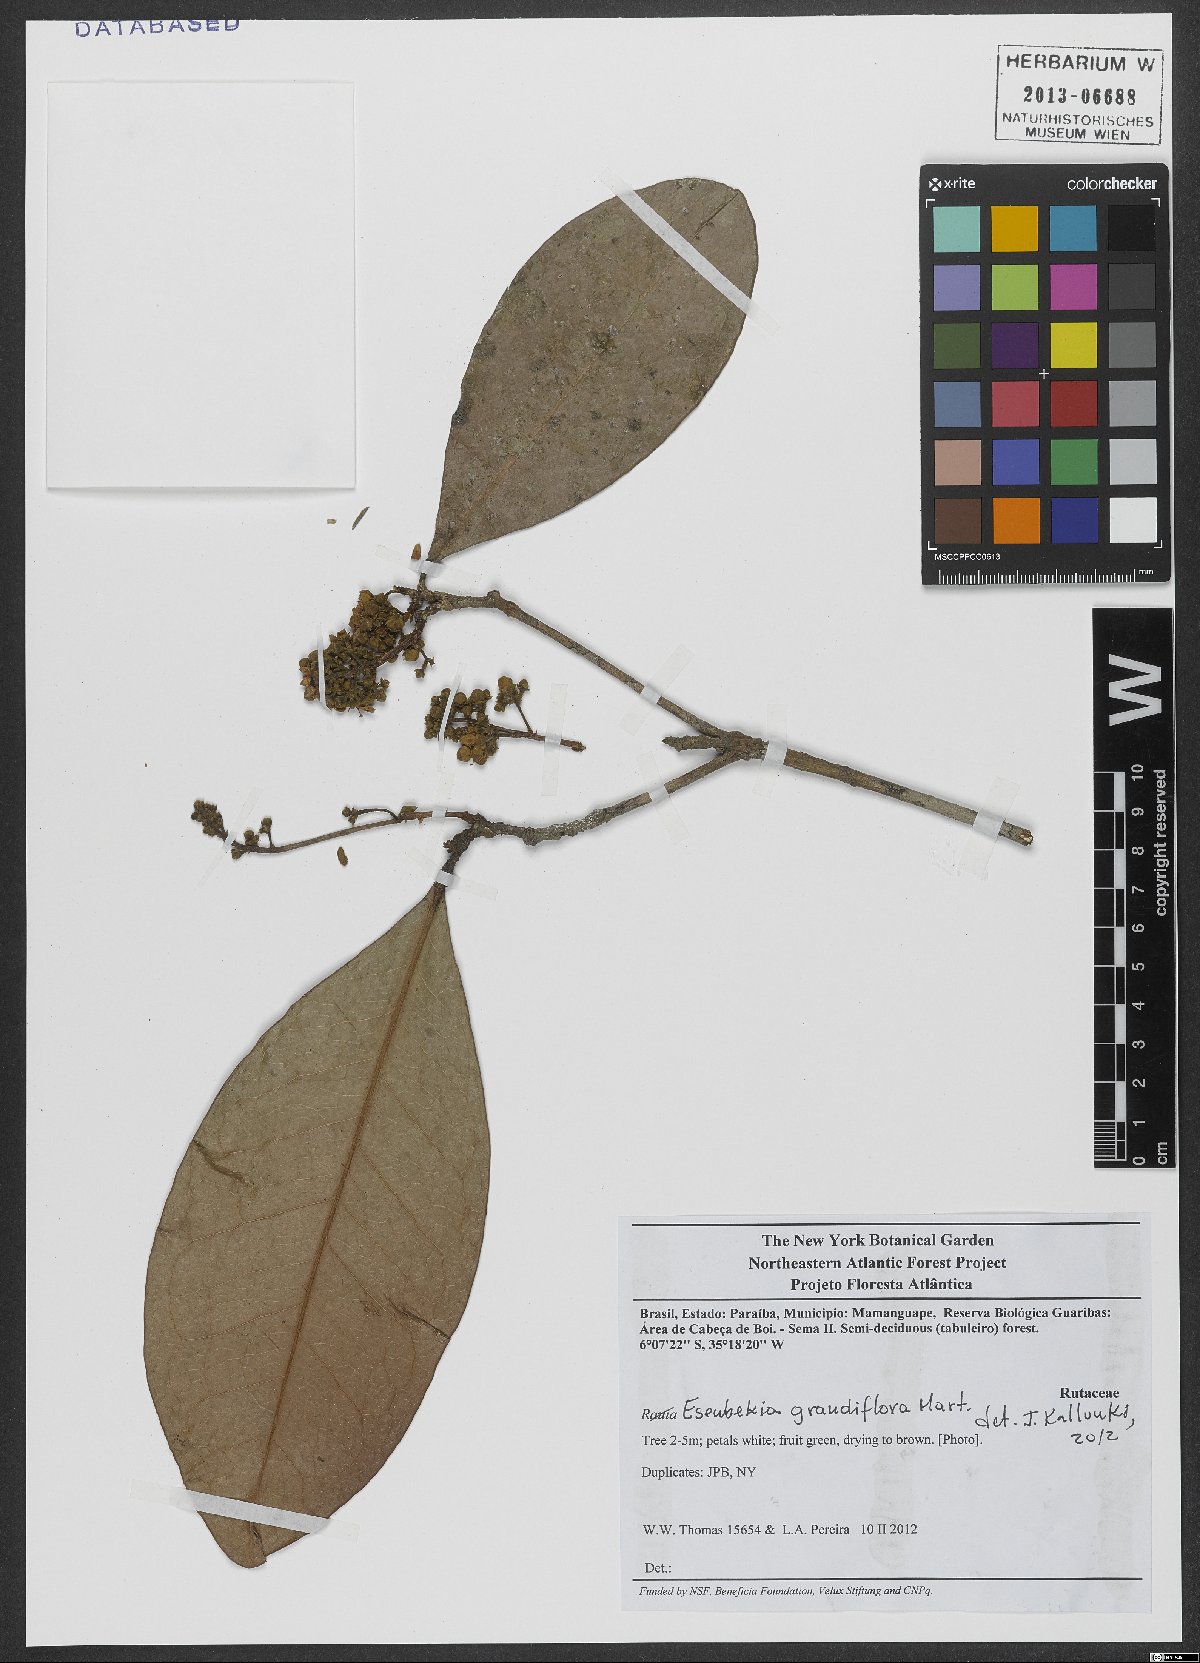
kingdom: Plantae
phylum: Tracheophyta
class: Magnoliopsida
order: Sapindales
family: Rutaceae
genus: Esenbeckia
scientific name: Esenbeckia grandiflora
